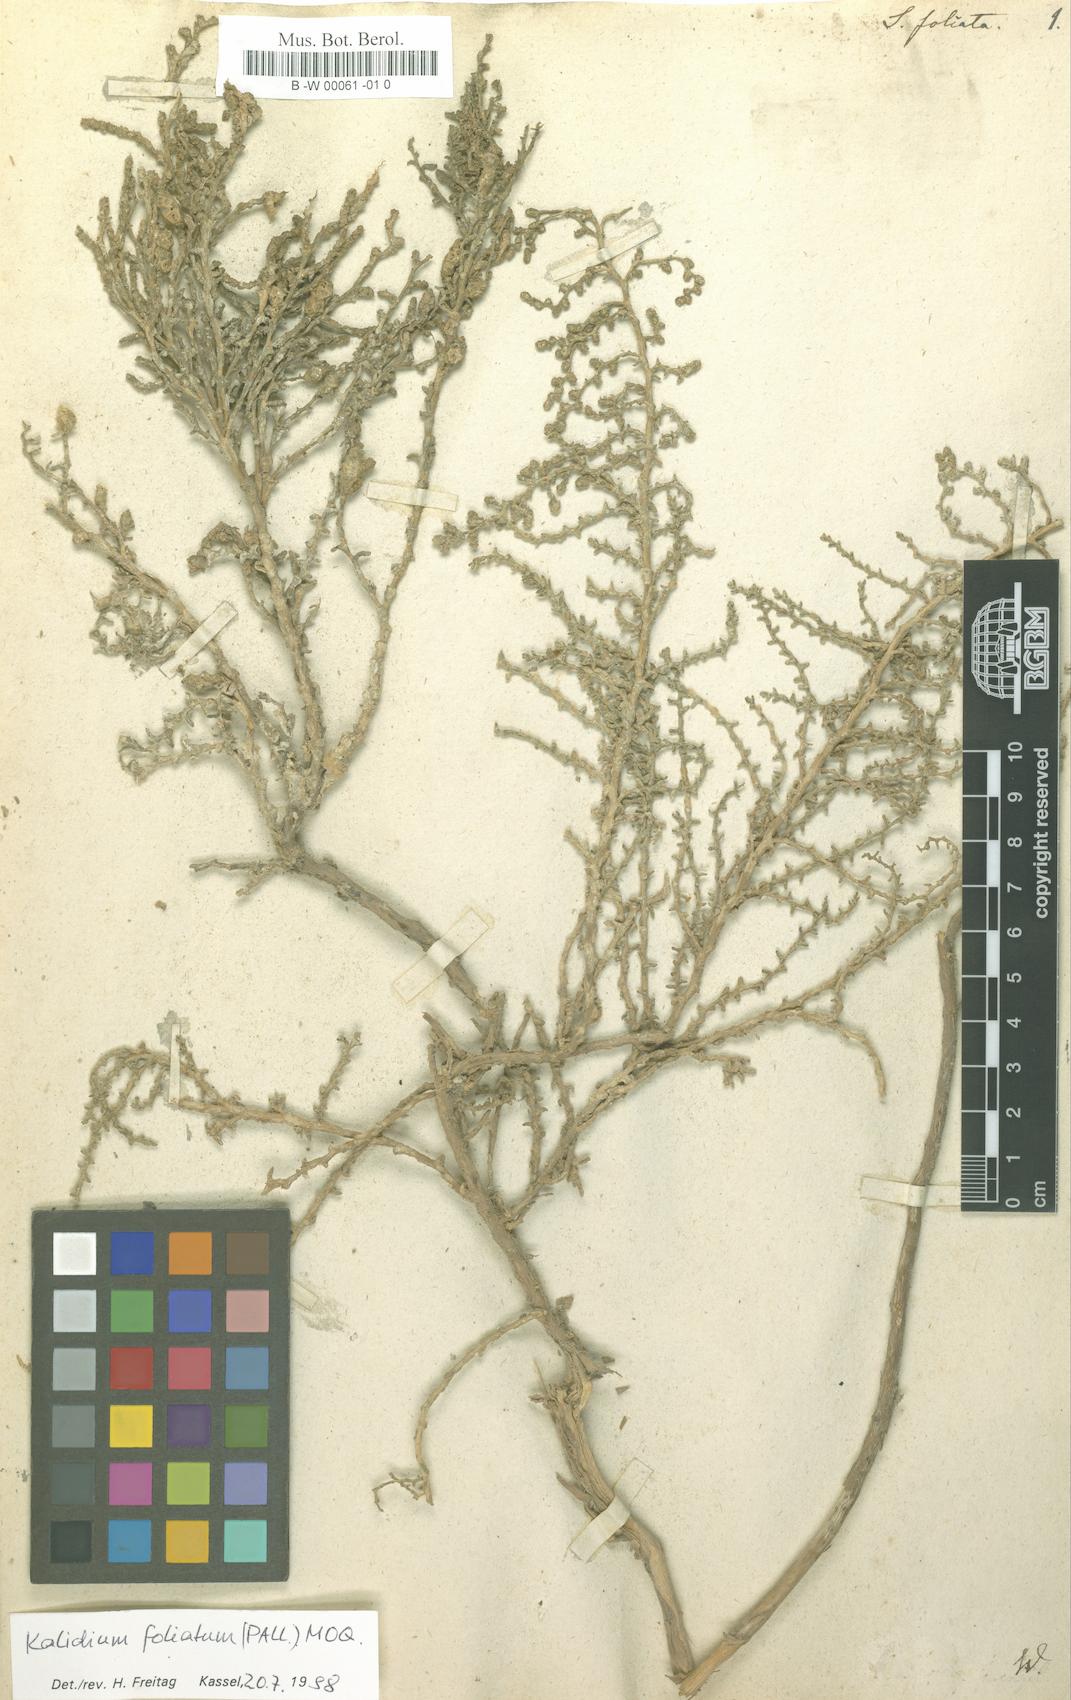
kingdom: Plantae
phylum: Tracheophyta
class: Magnoliopsida
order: Caryophyllales
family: Amaranthaceae
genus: Kalidium
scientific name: Kalidium foliatum
